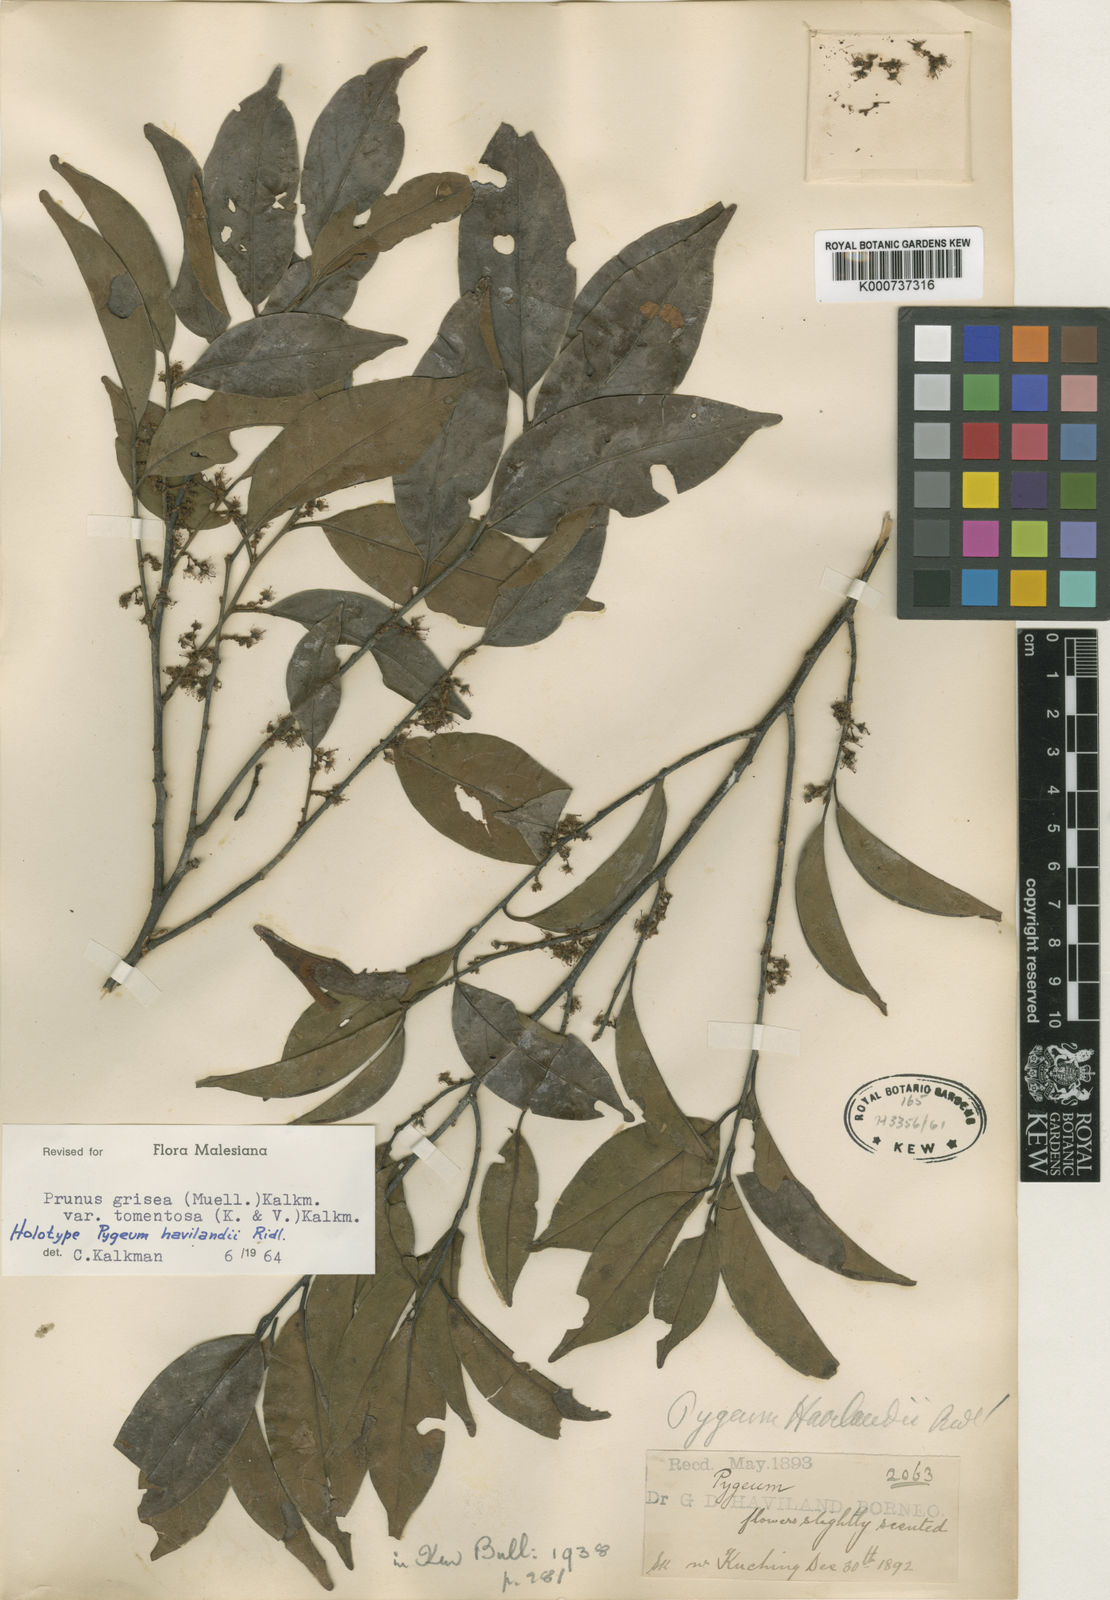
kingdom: Plantae
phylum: Tracheophyta
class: Magnoliopsida
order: Rosales
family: Rosaceae
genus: Prunus
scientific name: Prunus grisea
